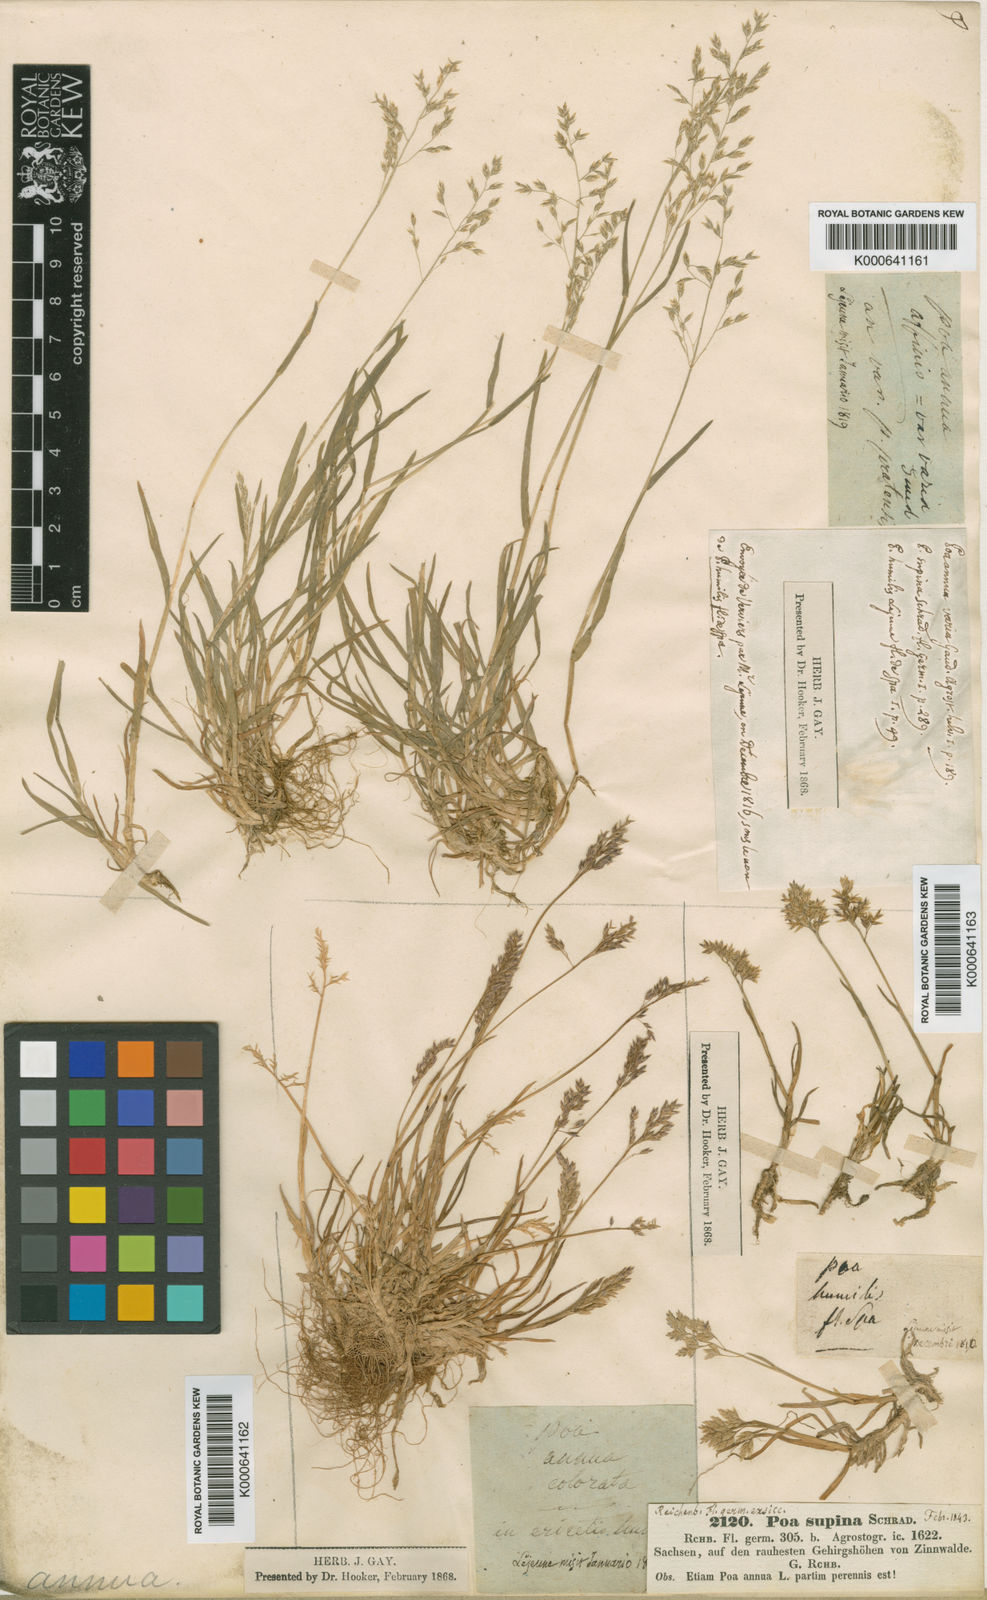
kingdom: Plantae
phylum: Tracheophyta
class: Liliopsida
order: Poales
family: Poaceae
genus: Poa
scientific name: Poa annua
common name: Annual bluegrass
